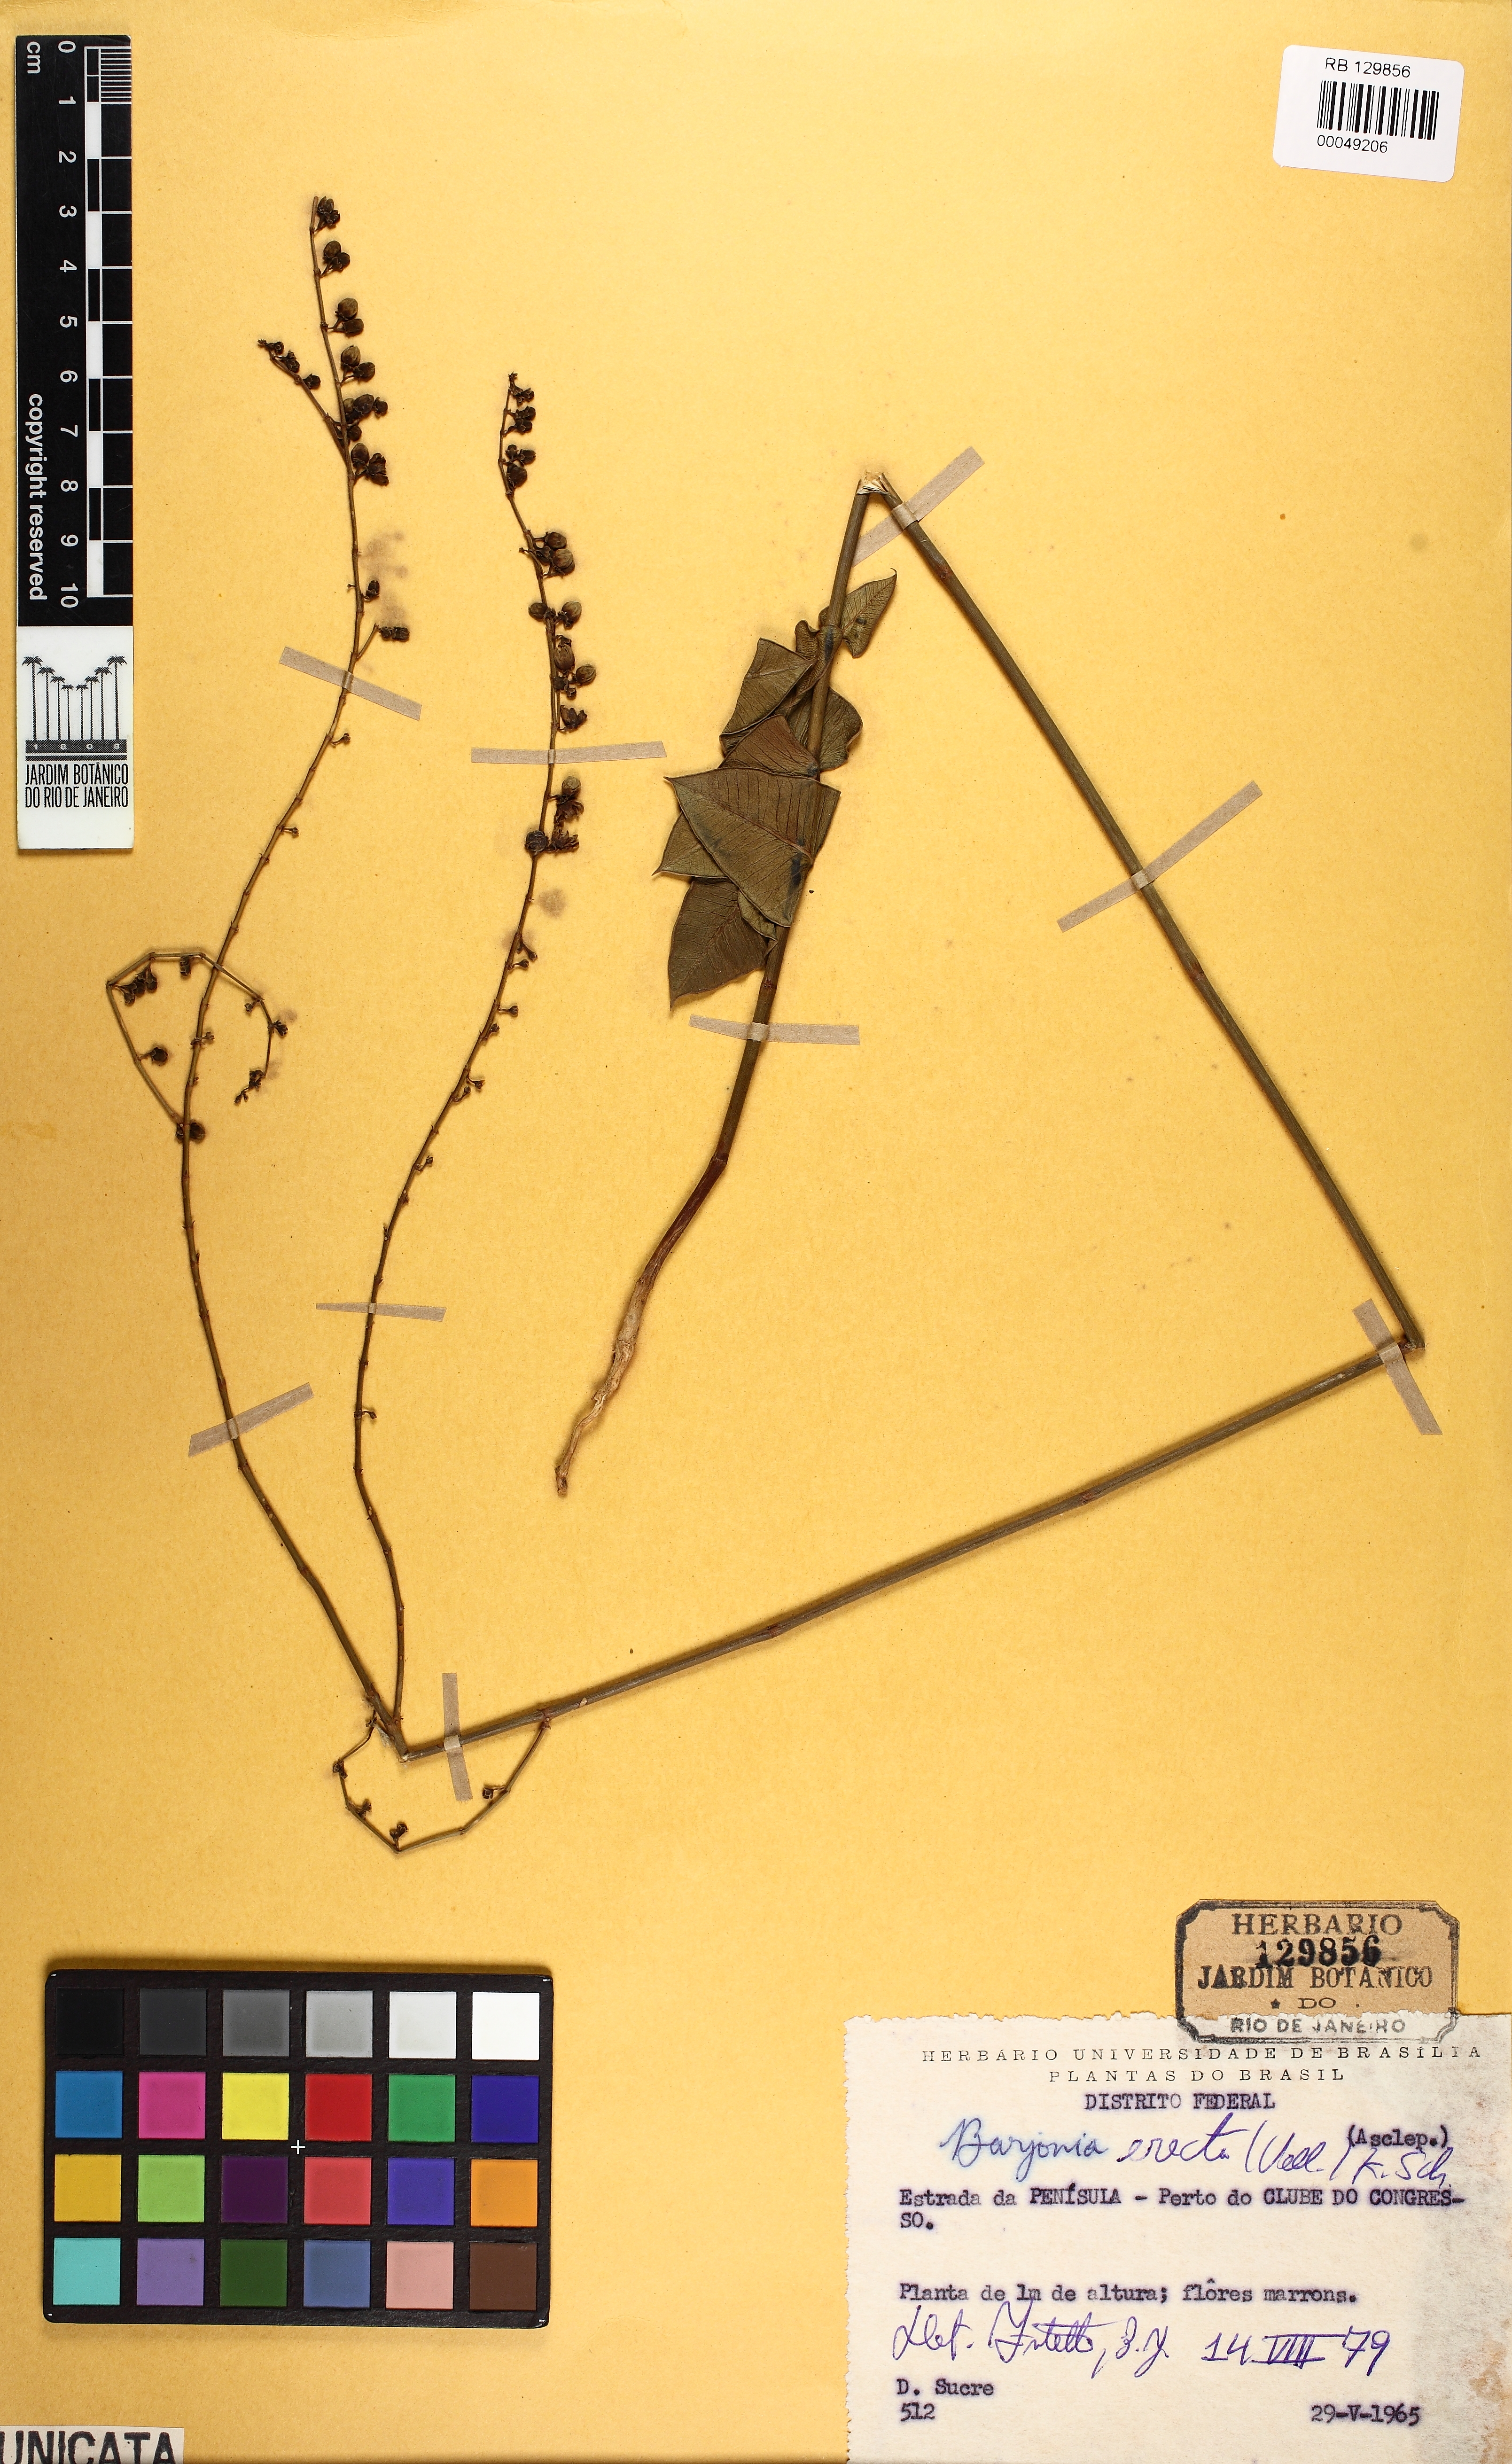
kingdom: Plantae
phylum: Tracheophyta
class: Magnoliopsida
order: Gentianales
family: Apocynaceae
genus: Barjonia
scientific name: Barjonia erecta
